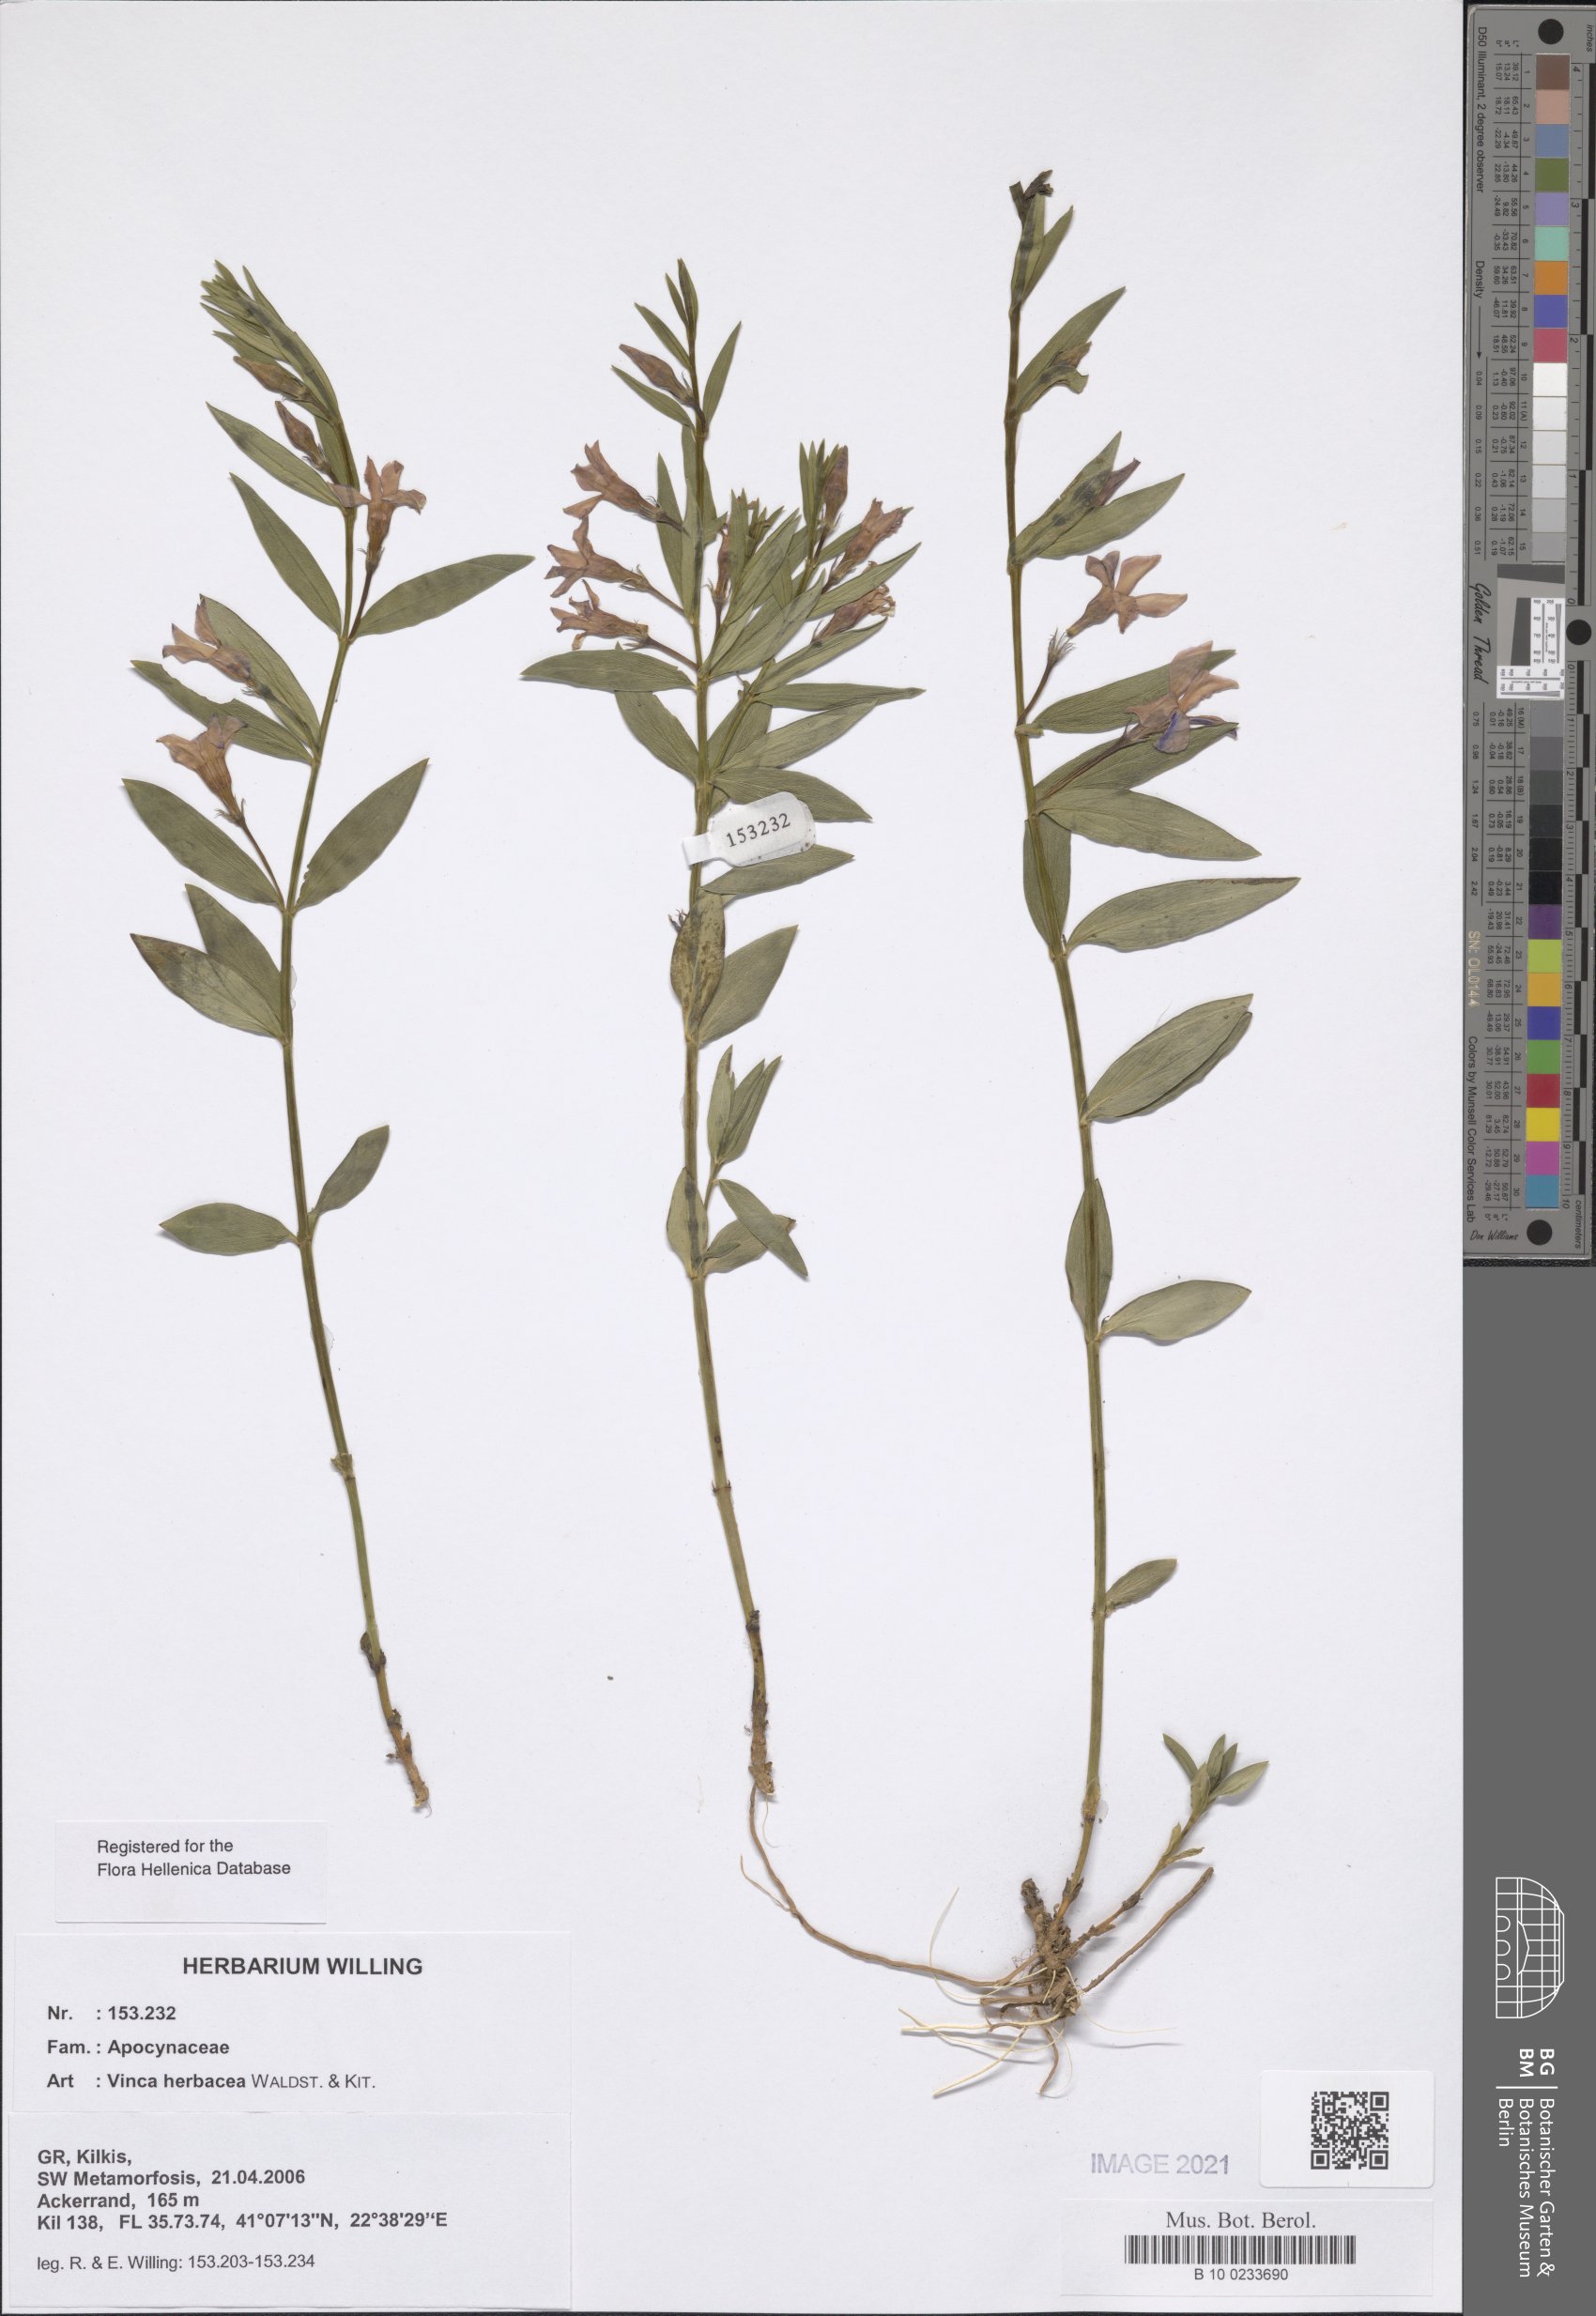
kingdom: Plantae
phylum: Tracheophyta
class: Magnoliopsida
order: Gentianales
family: Apocynaceae
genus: Vinca
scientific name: Vinca herbacea
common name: Herbaceous periwinkle
